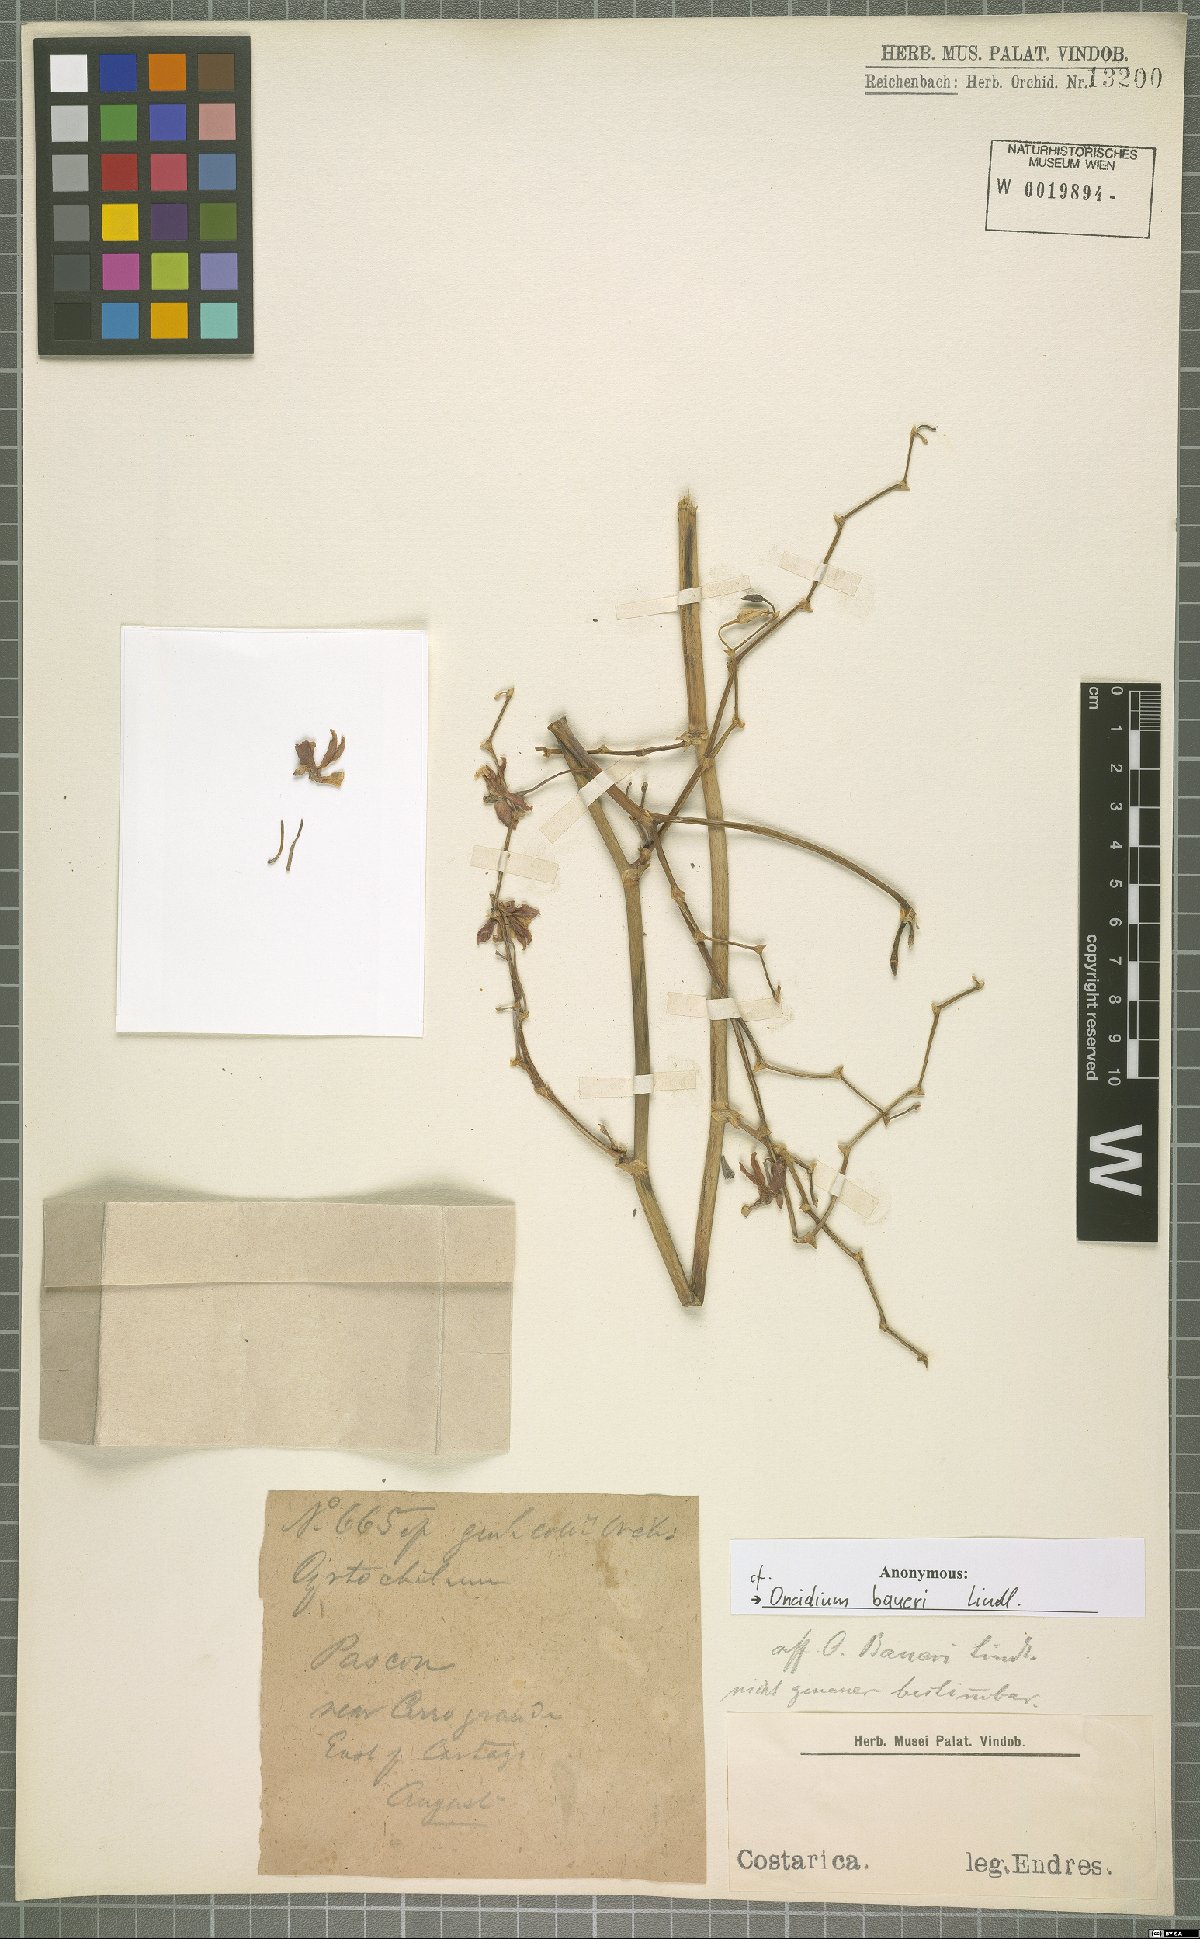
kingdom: Plantae
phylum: Tracheophyta
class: Liliopsida
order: Asparagales
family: Orchidaceae
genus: Oncidium
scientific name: Oncidium baueri
